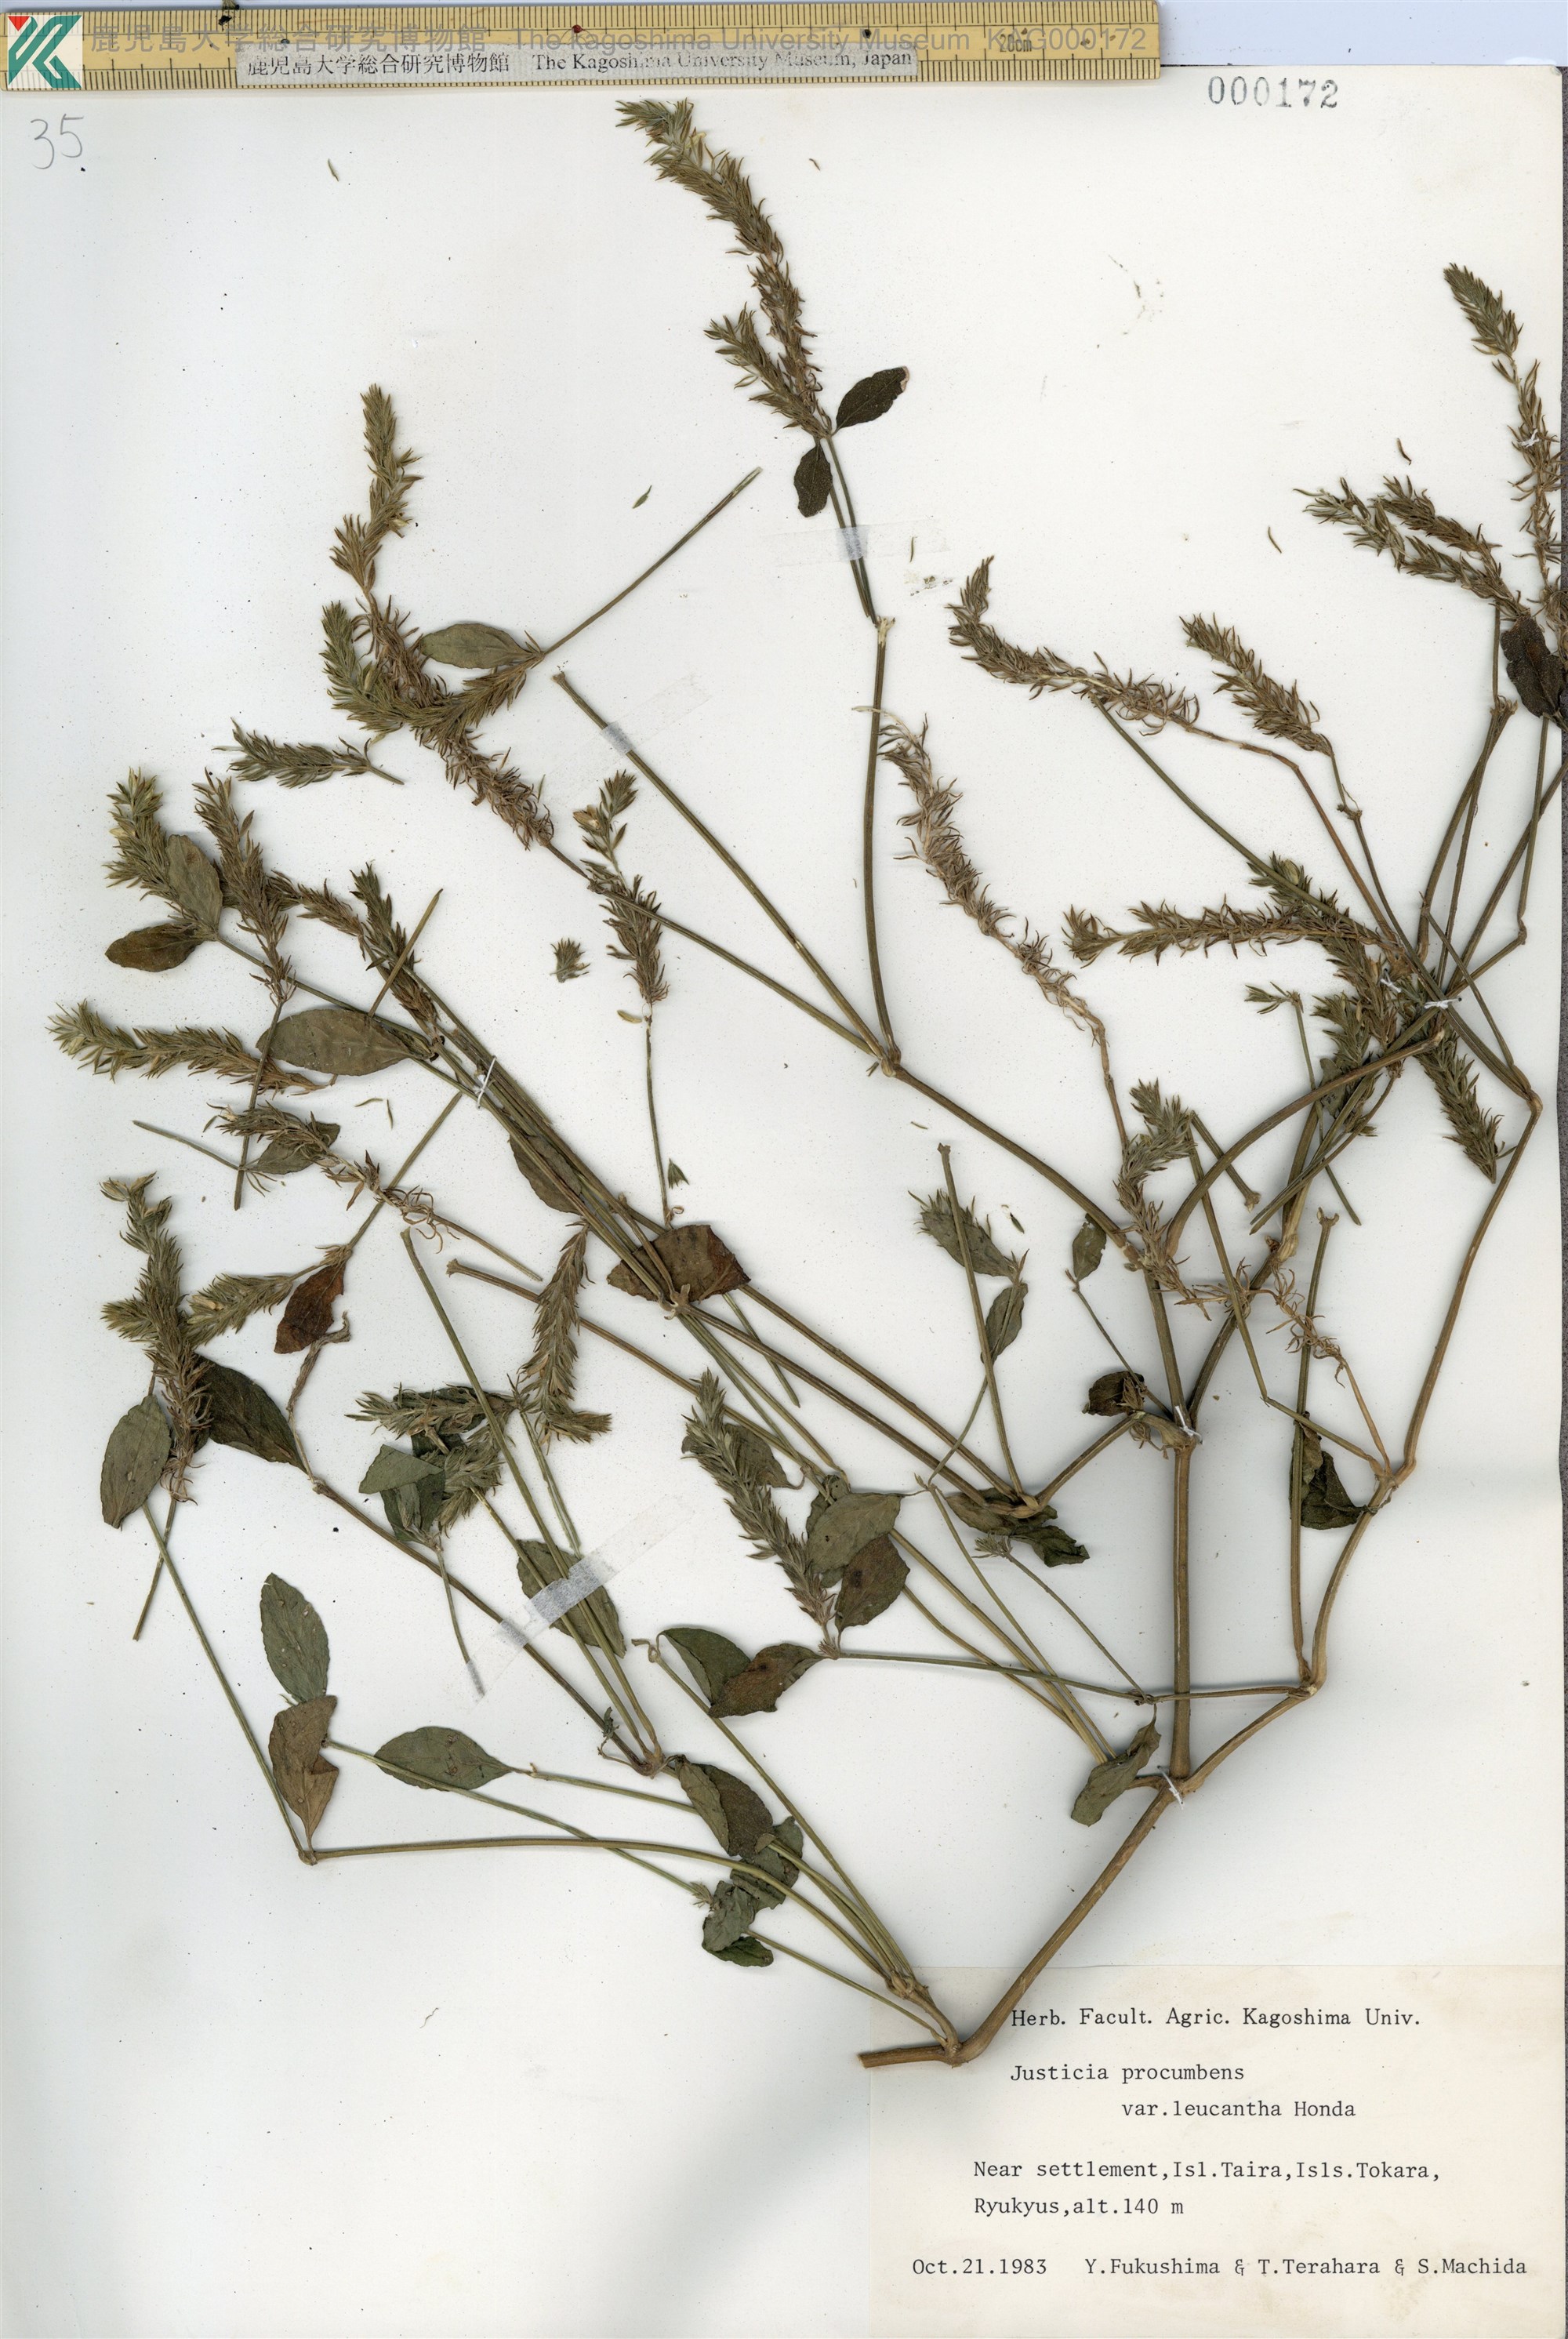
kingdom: Plantae
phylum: Tracheophyta
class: Magnoliopsida
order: Lamiales
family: Acanthaceae
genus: Rostellularia
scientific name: Rostellularia procumbens
